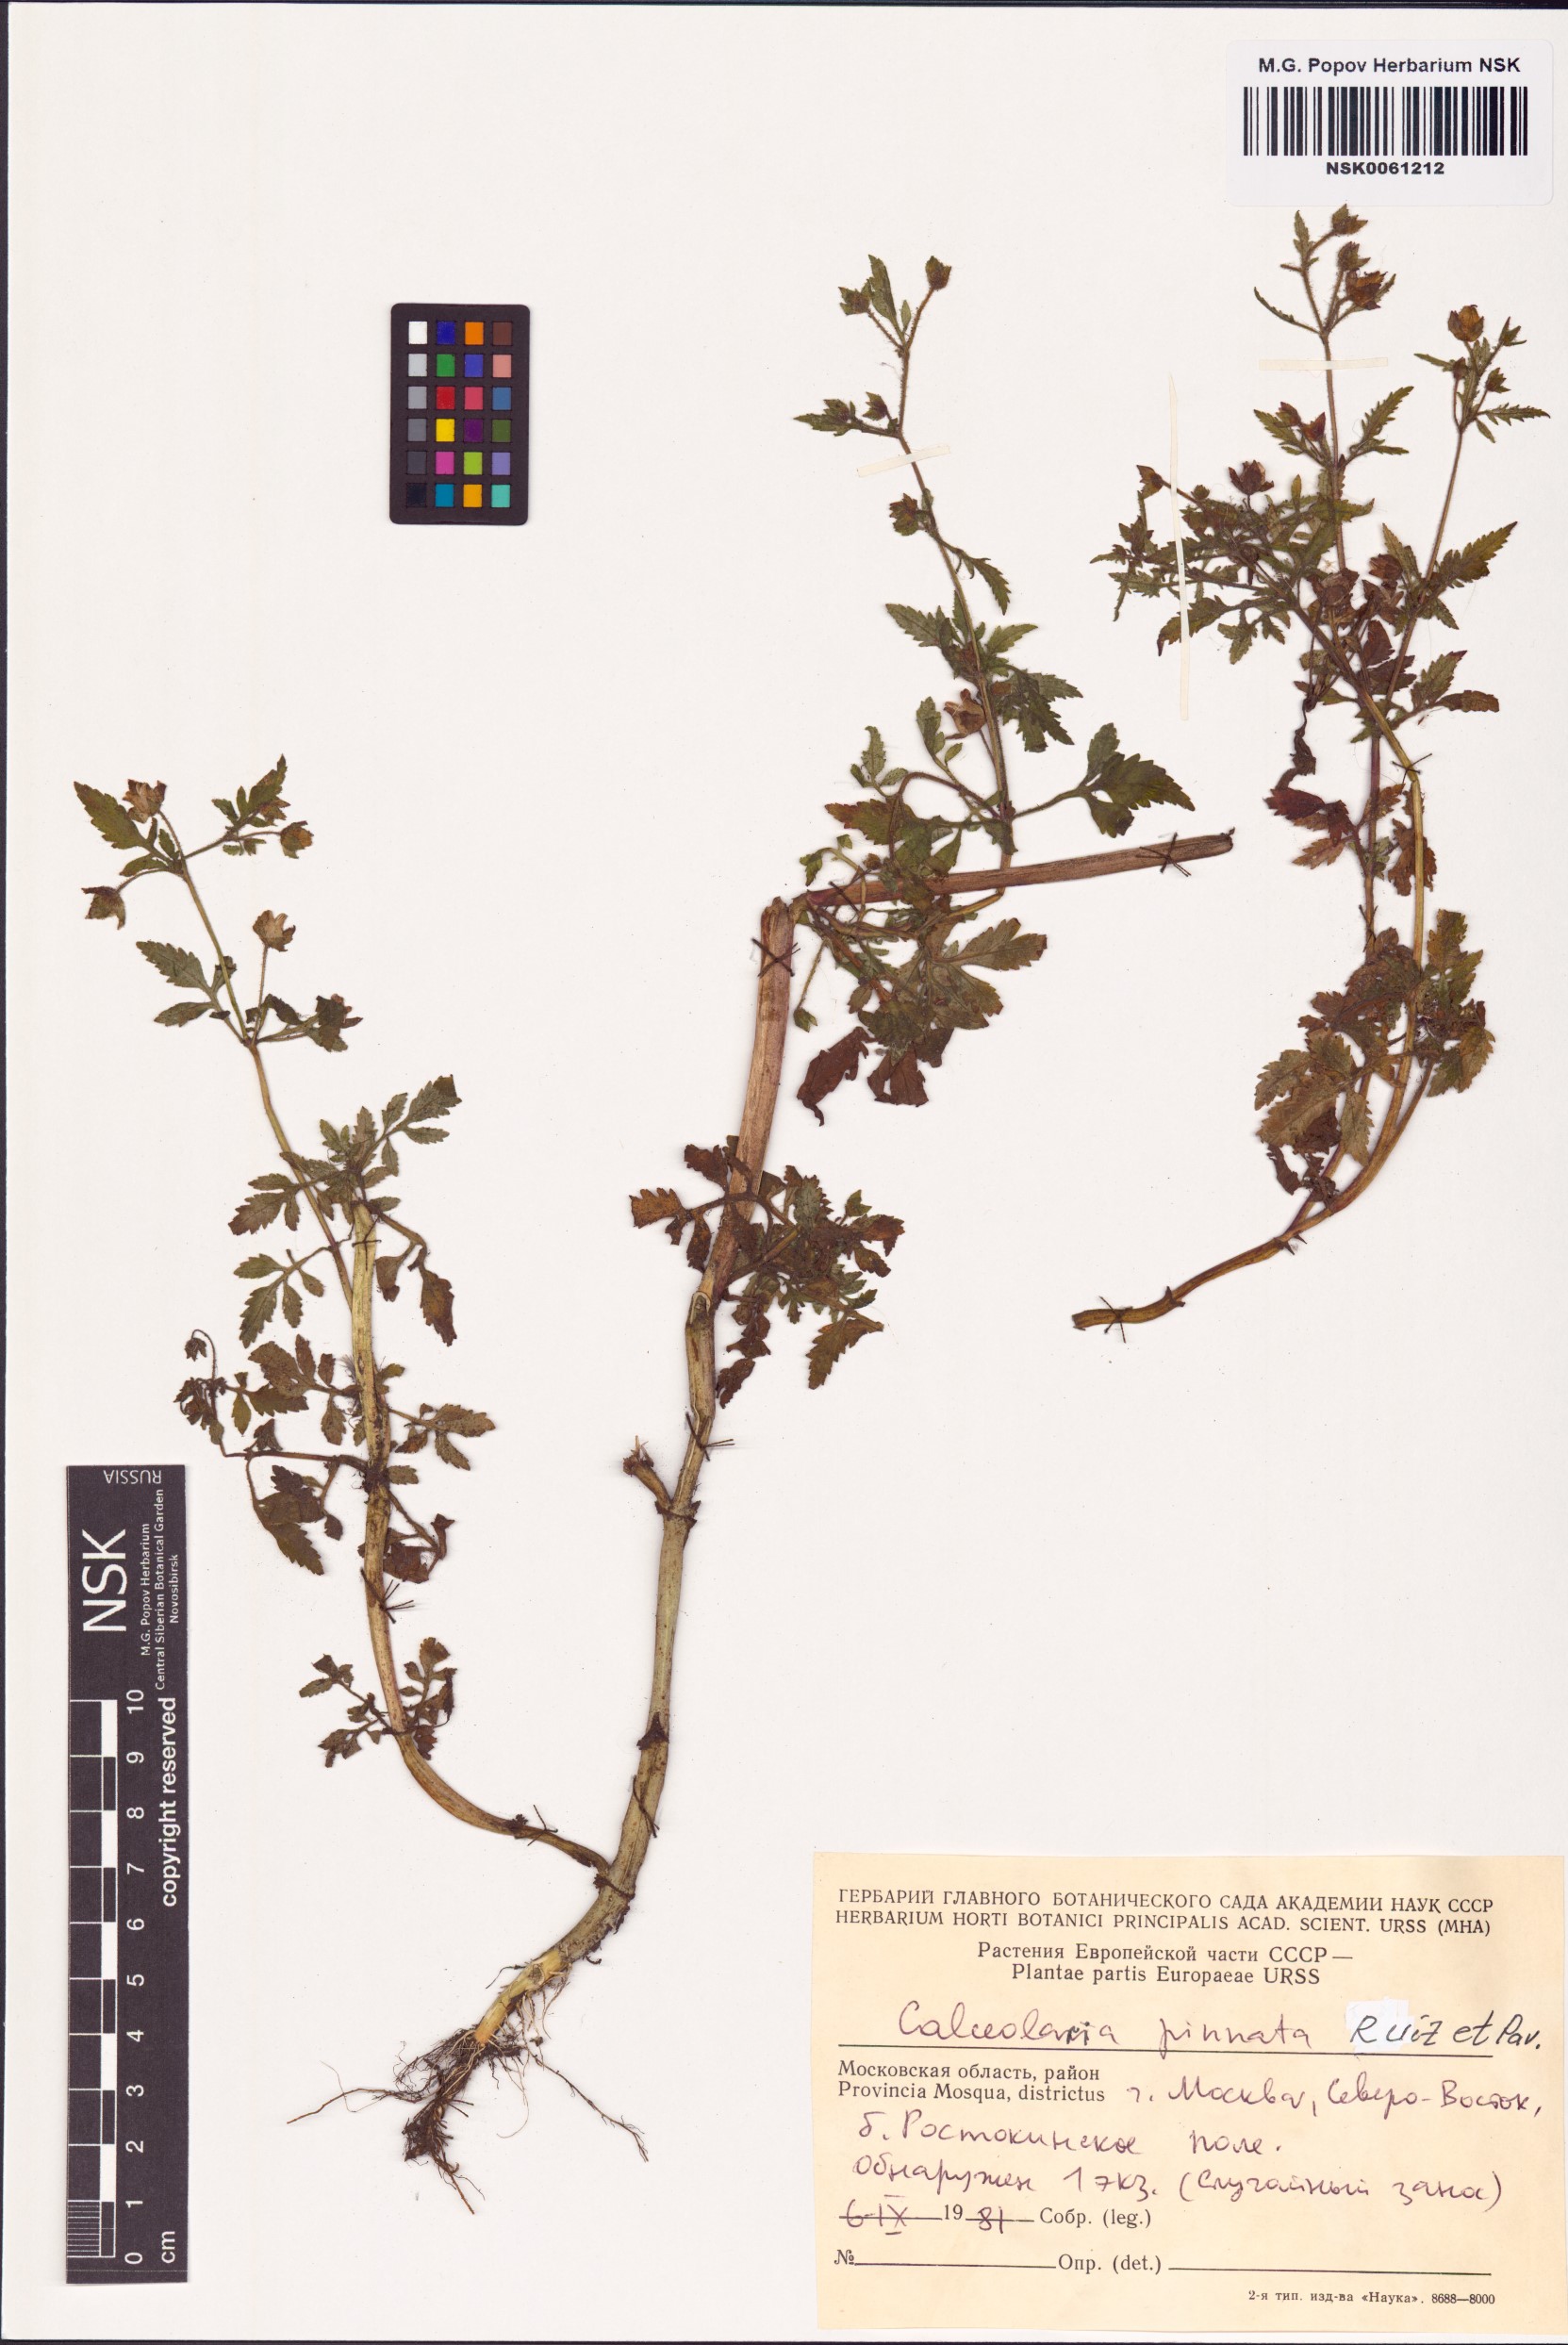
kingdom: Plantae
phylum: Tracheophyta
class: Magnoliopsida
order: Lamiales
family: Calceolariaceae
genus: Calceolaria
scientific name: Calceolaria pinnata
